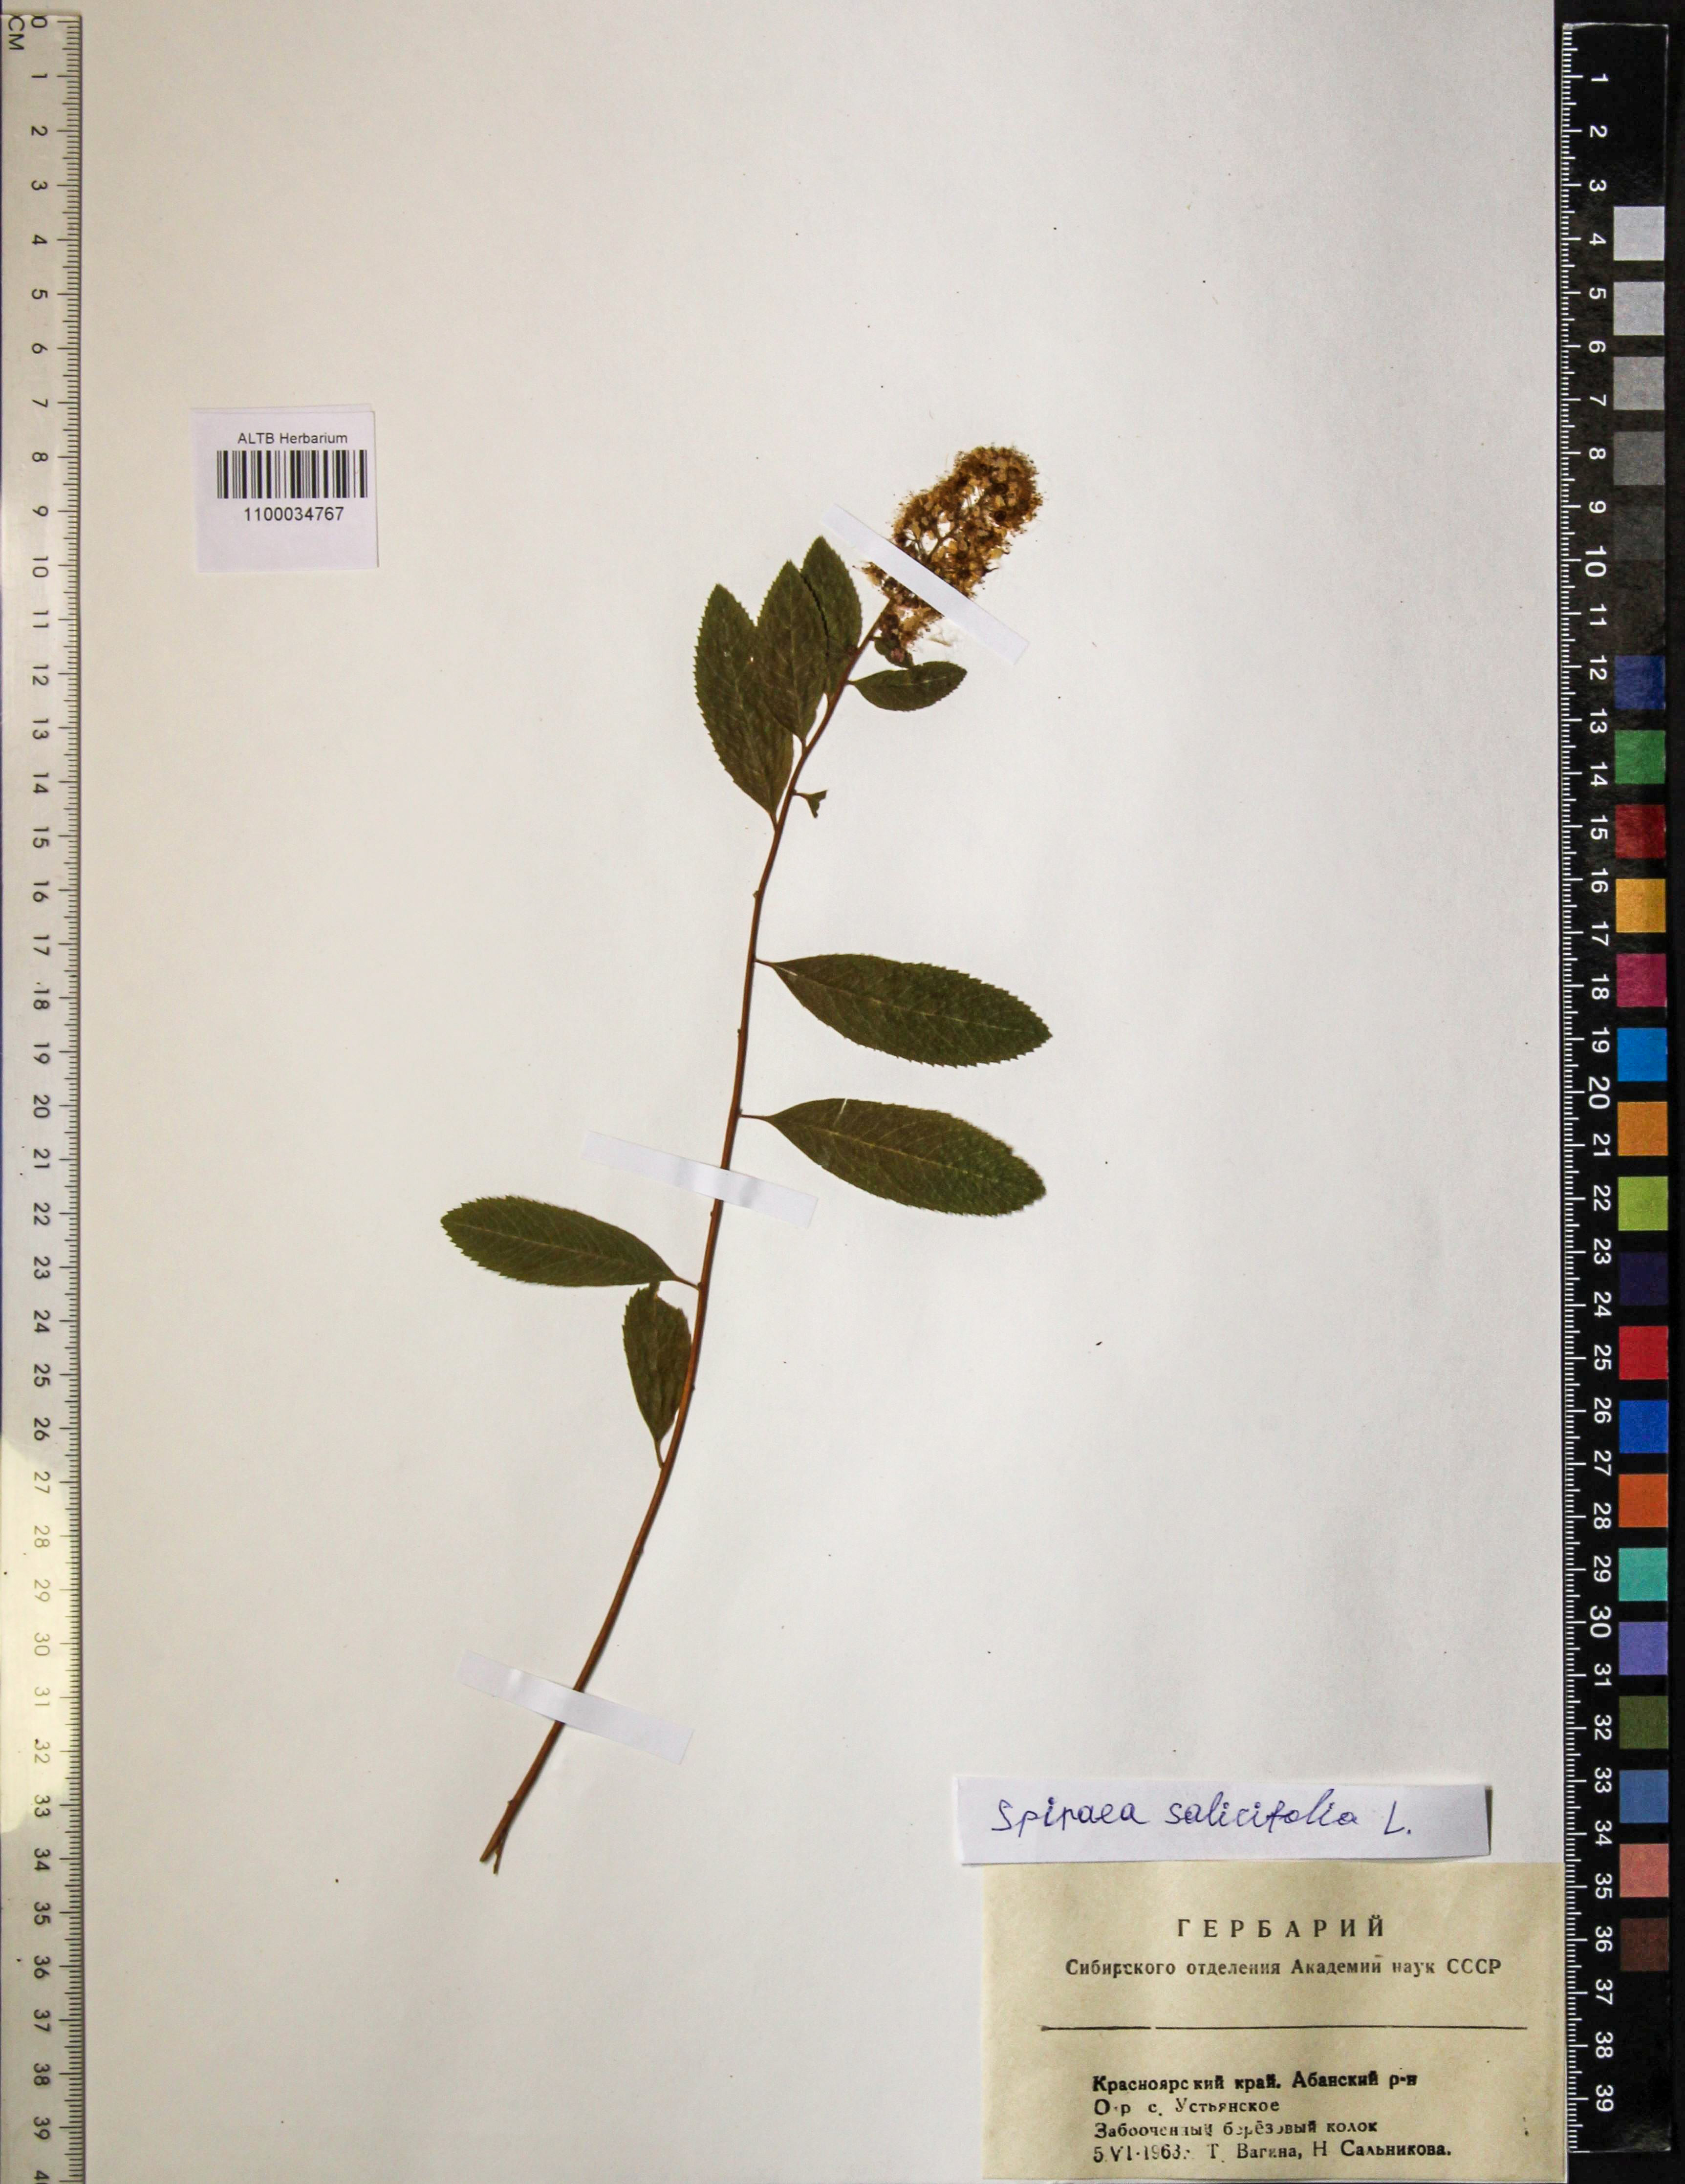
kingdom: Plantae
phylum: Tracheophyta
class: Magnoliopsida
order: Rosales
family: Rosaceae
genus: Spiraea
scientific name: Spiraea salicifolia
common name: Bridewort
